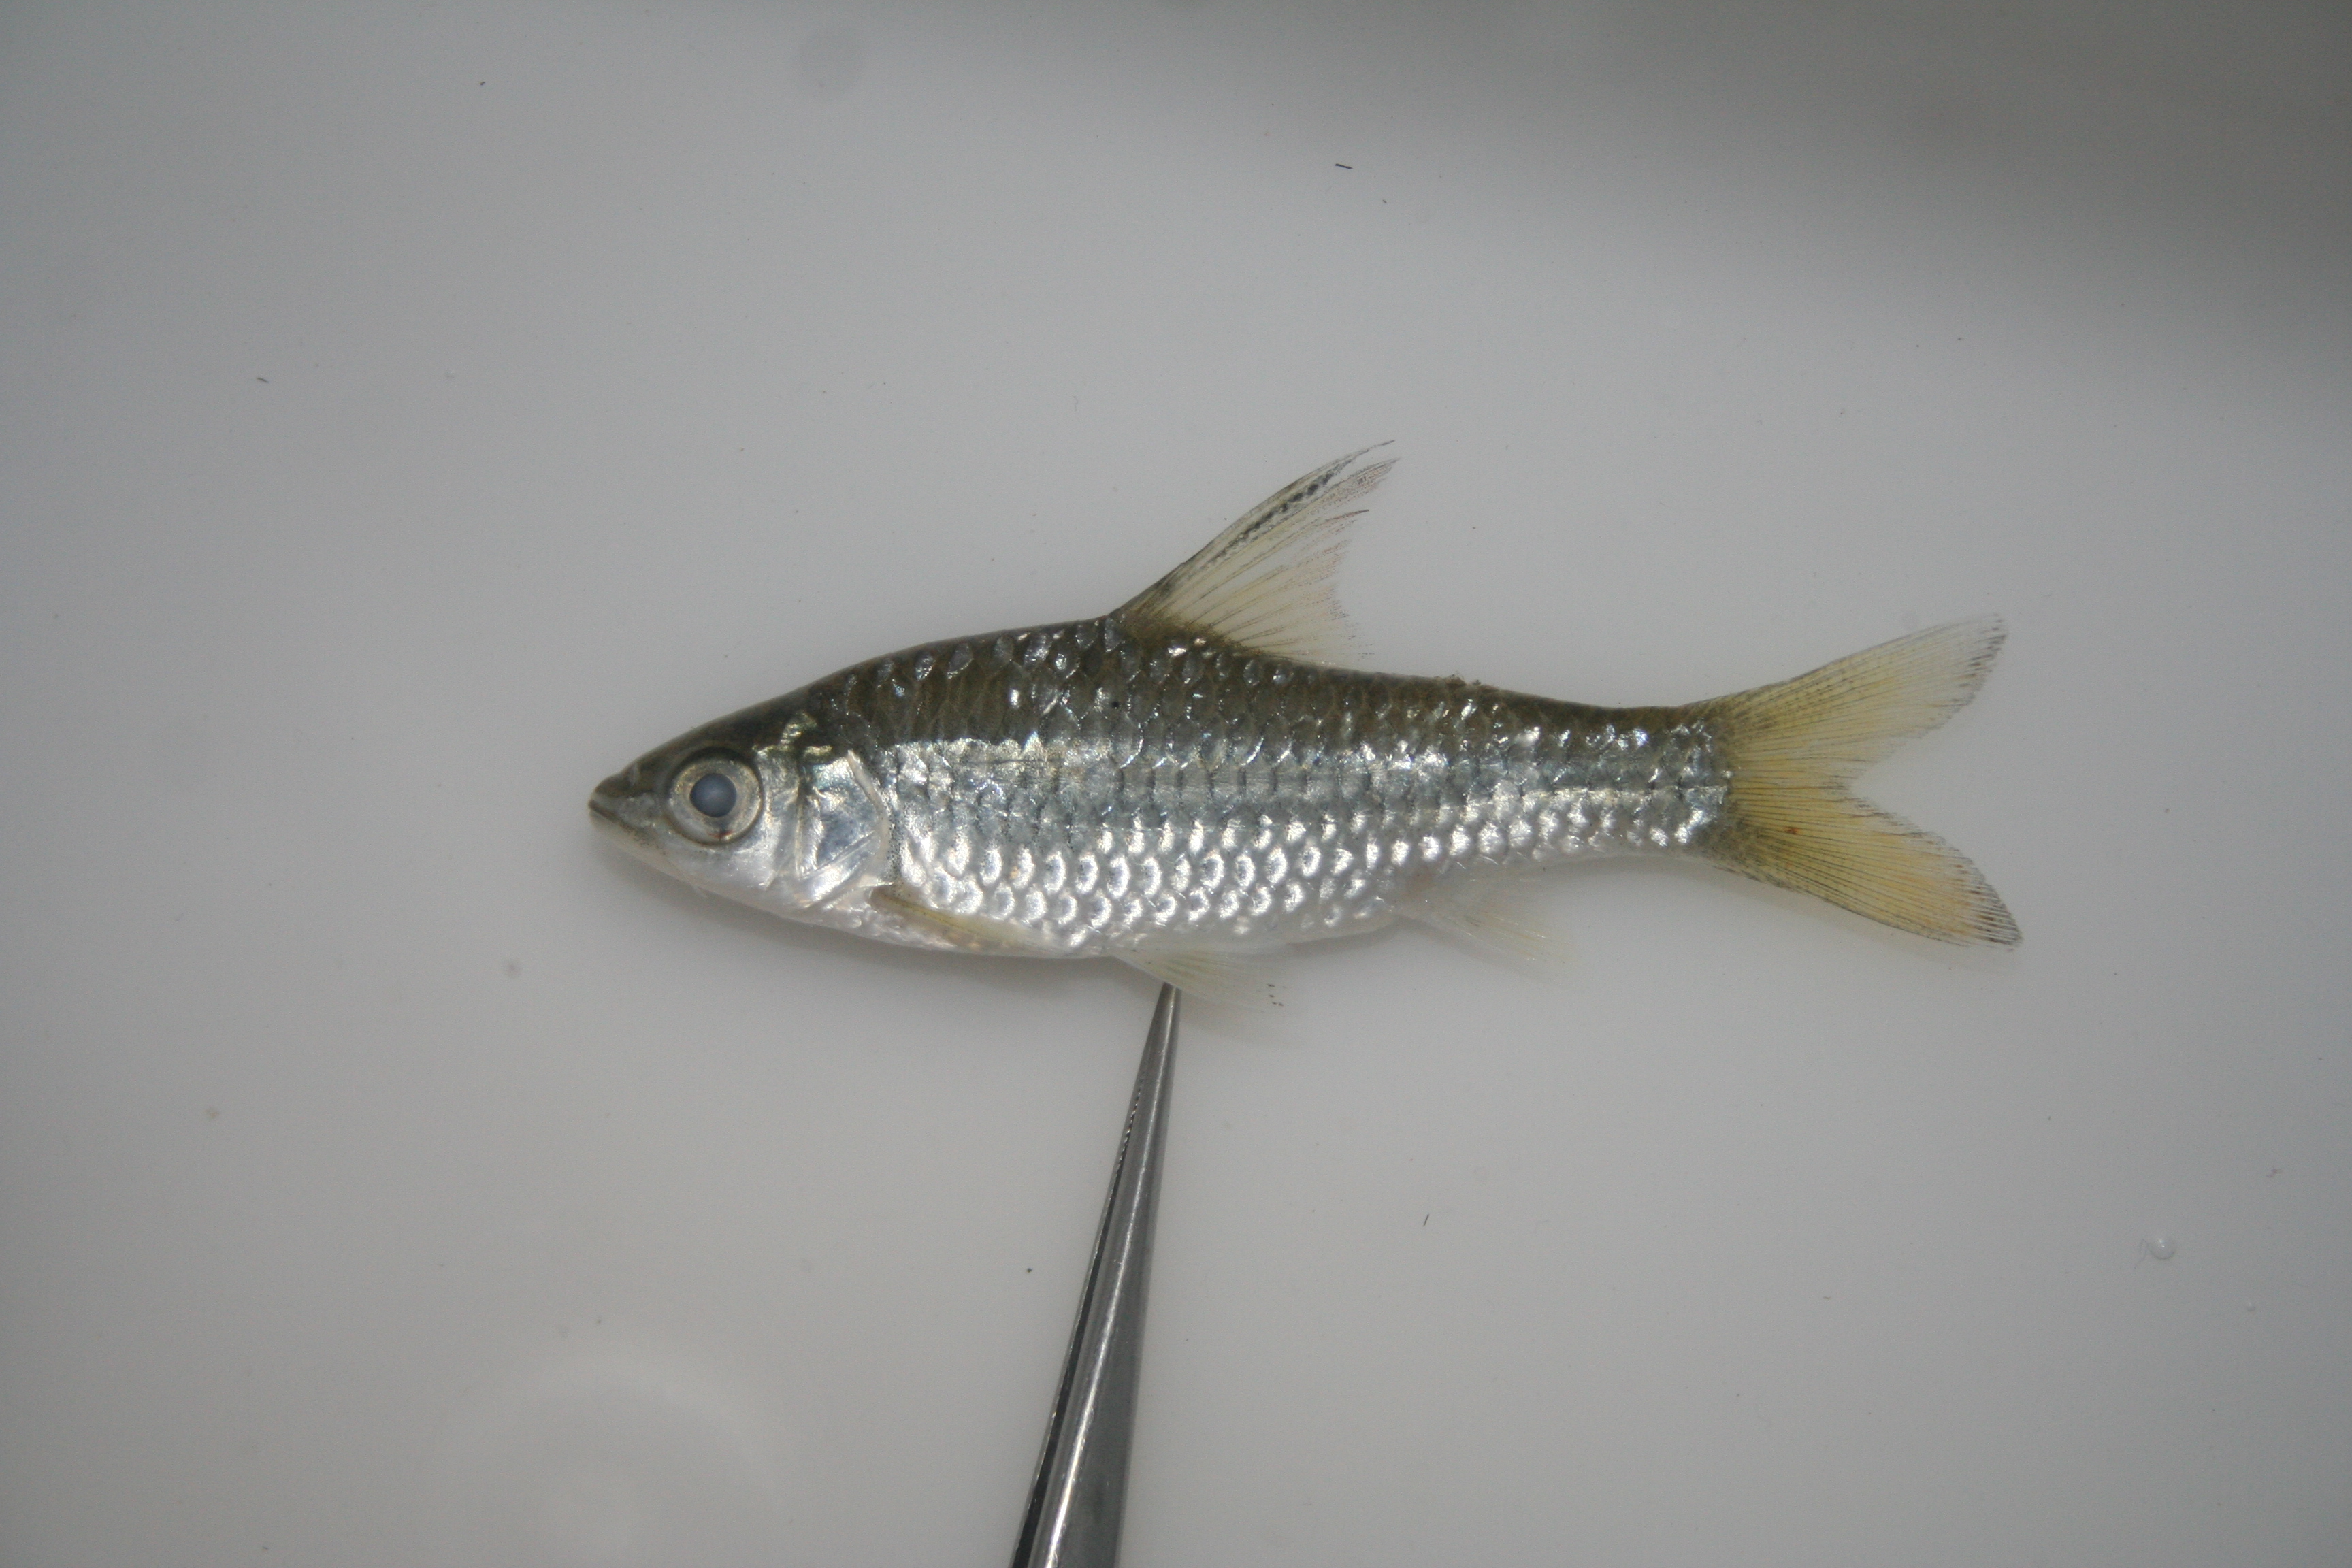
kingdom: Animalia
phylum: Chordata
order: Cypriniformes
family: Cyprinidae
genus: Enteromius
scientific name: Enteromius argenteus
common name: Rosefin barb
